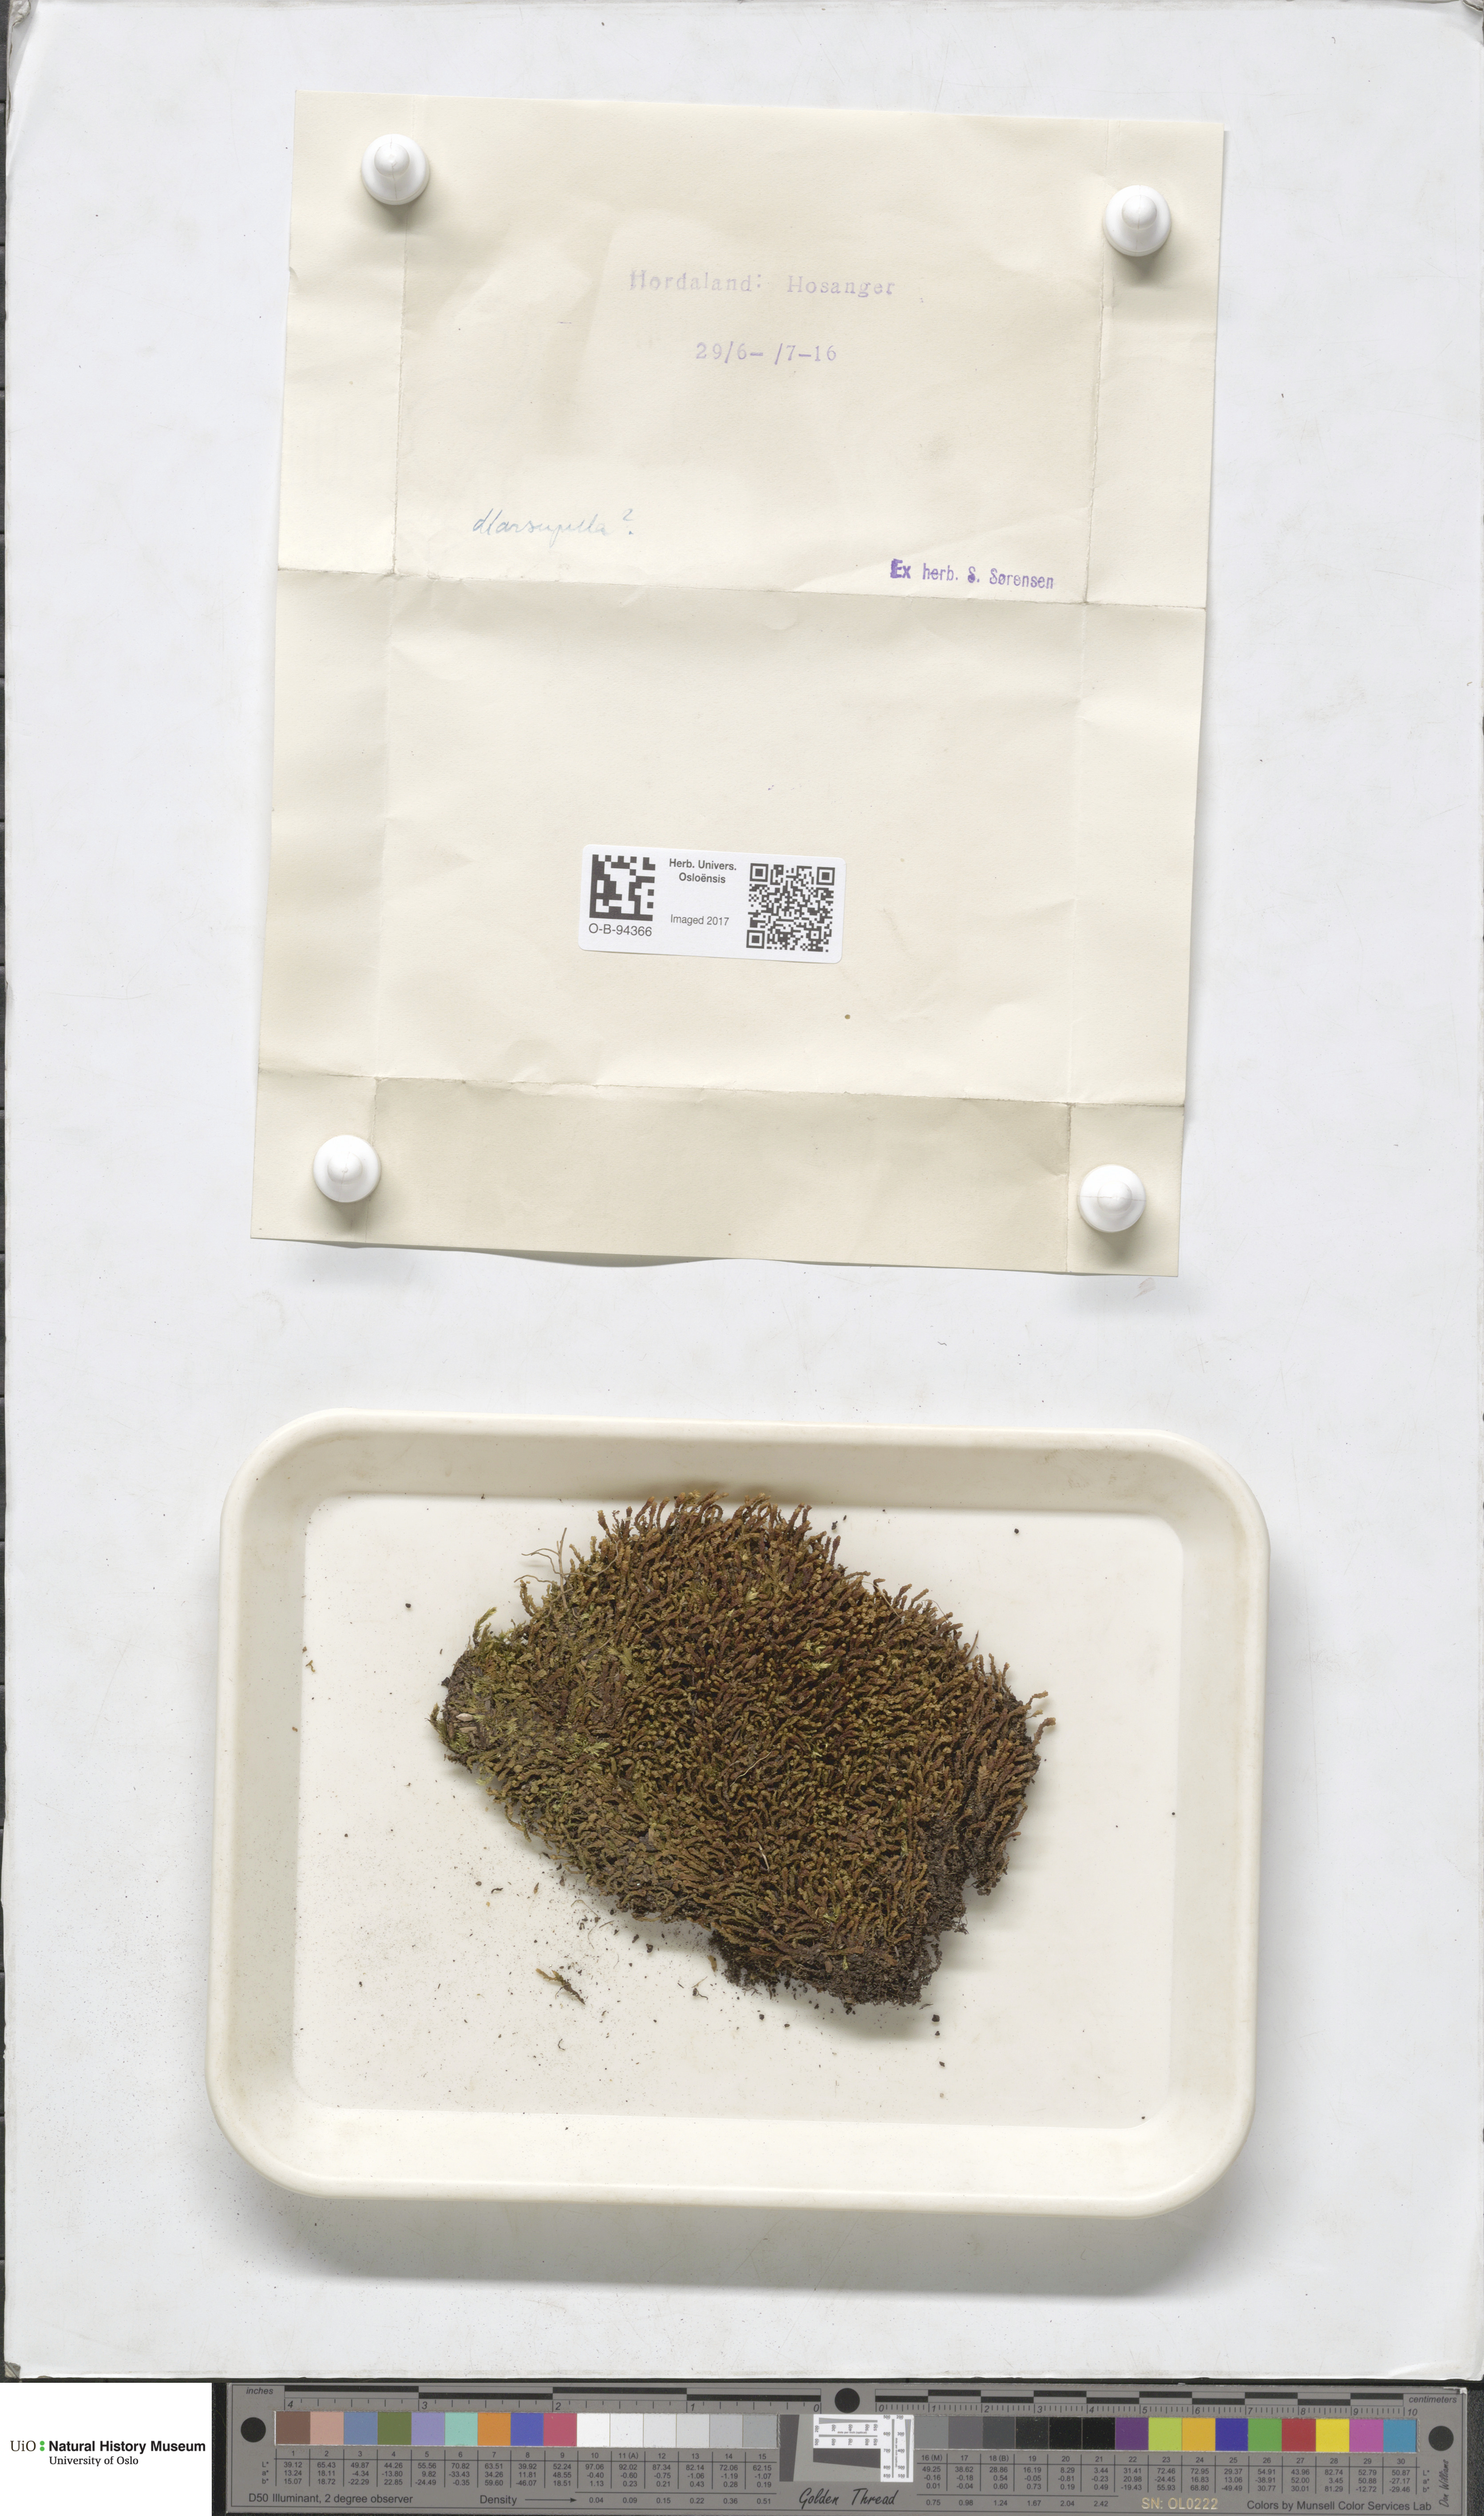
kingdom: Plantae
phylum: Marchantiophyta
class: Jungermanniopsida
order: Jungermanniales
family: Gymnomitriaceae
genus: Marsupella
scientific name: Marsupella
